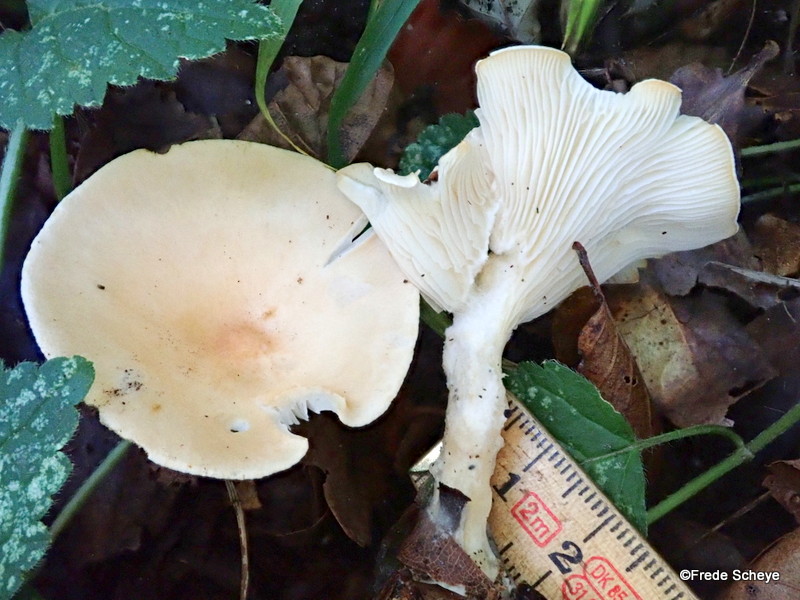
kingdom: Fungi
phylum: Basidiomycota
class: Agaricomycetes
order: Agaricales
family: Tricholomataceae
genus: Infundibulicybe
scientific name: Infundibulicybe gibba
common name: almindelig tragthat
